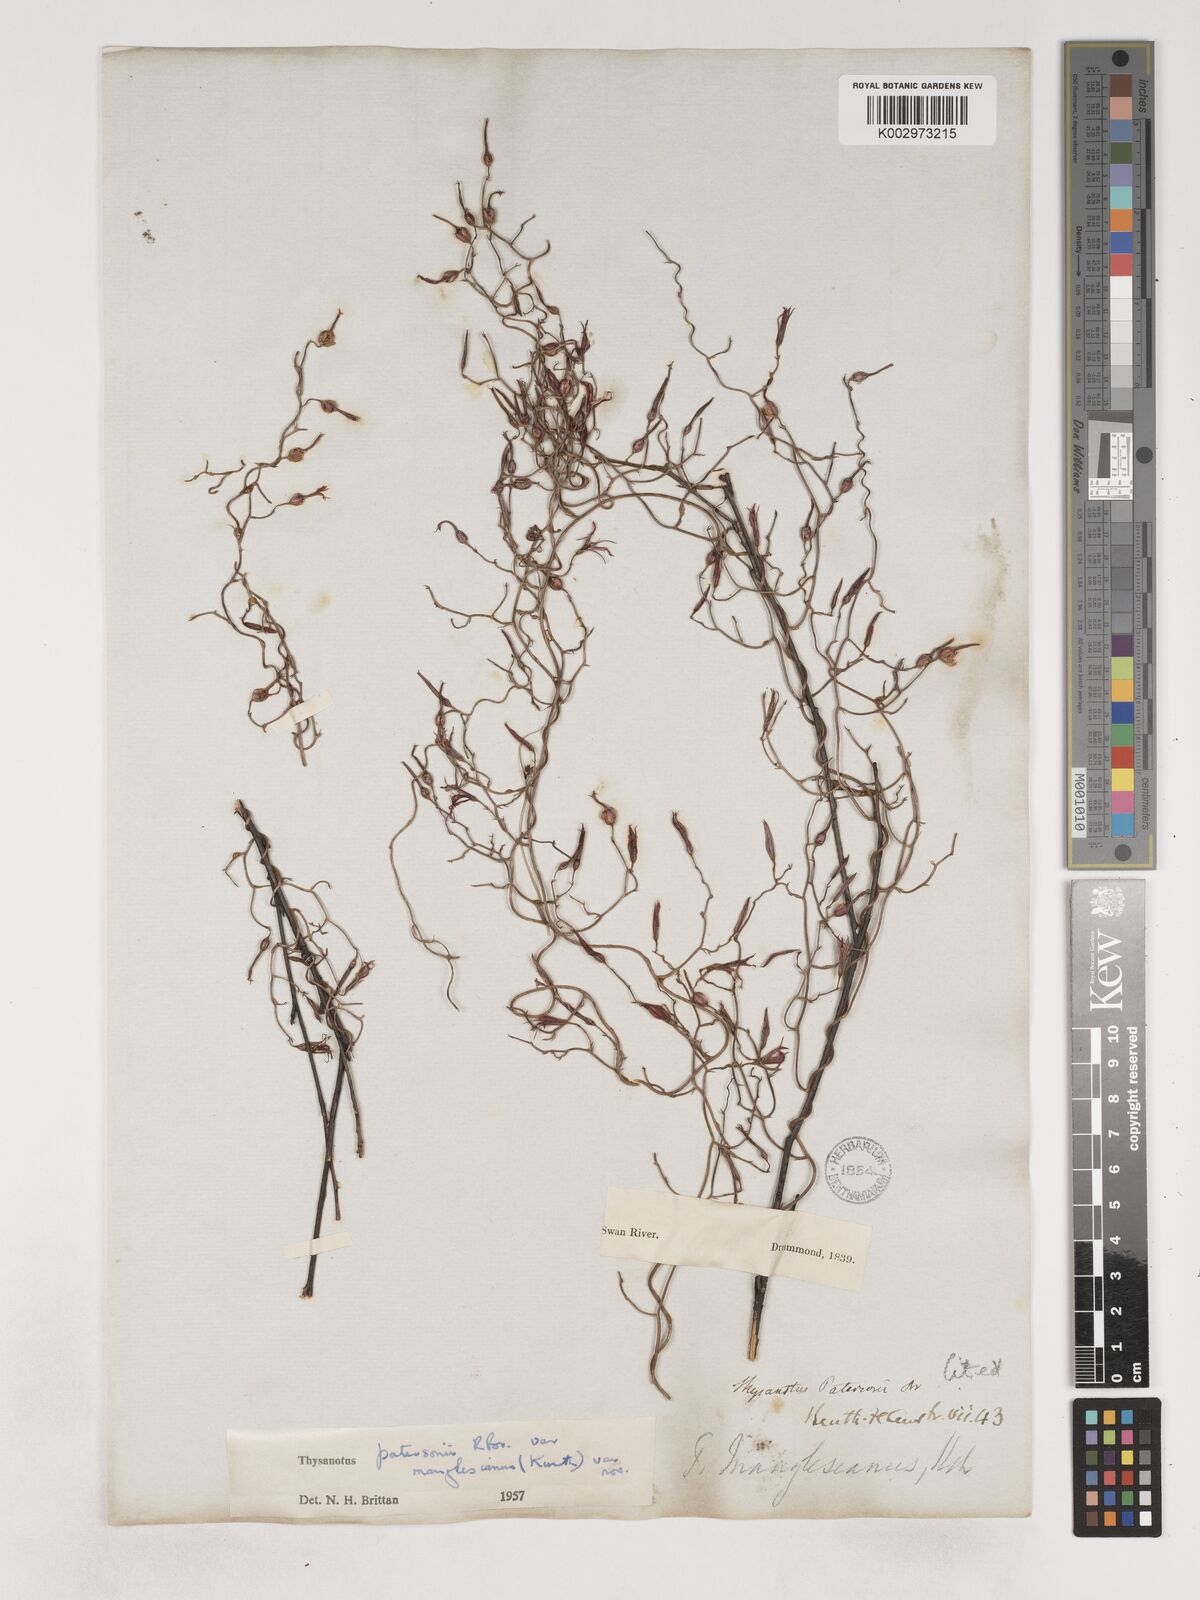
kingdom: Plantae
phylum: Tracheophyta
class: Liliopsida
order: Asparagales
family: Asparagaceae
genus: Thysanotus
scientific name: Thysanotus manglesianus
